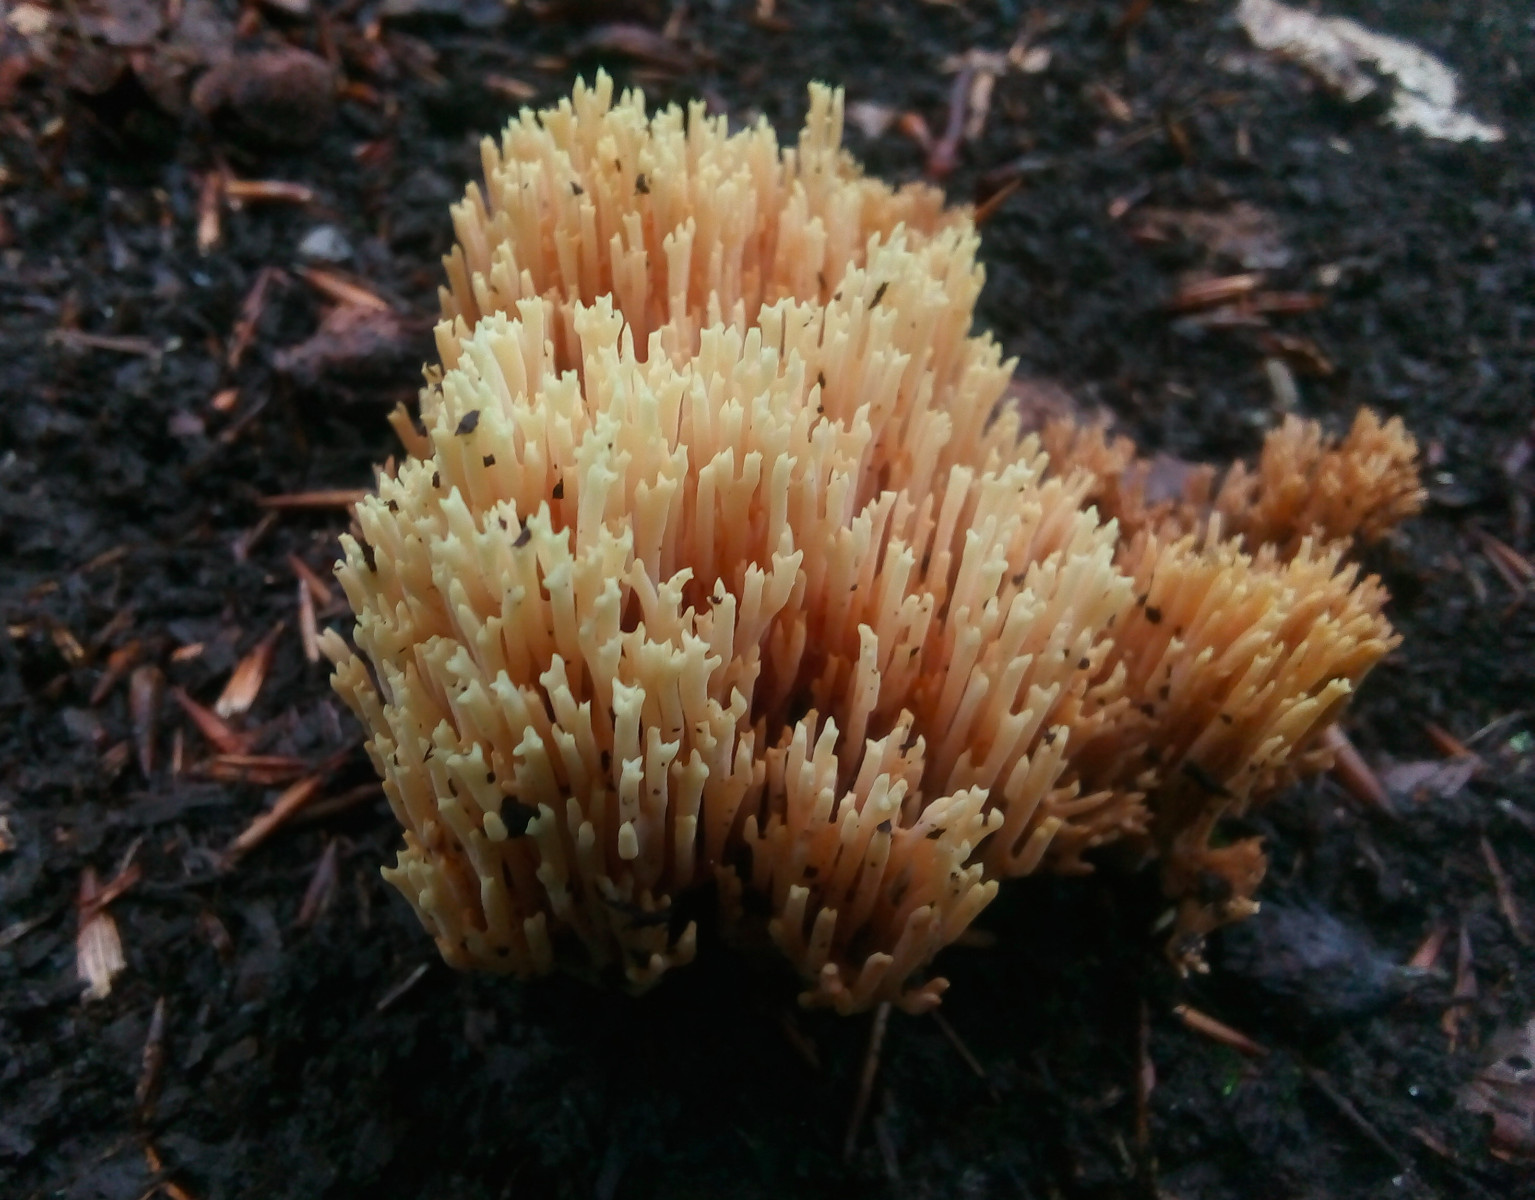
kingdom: Fungi
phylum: Basidiomycota
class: Agaricomycetes
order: Gomphales
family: Gomphaceae
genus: Ramaria
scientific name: Ramaria stricta
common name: rank koralsvamp
